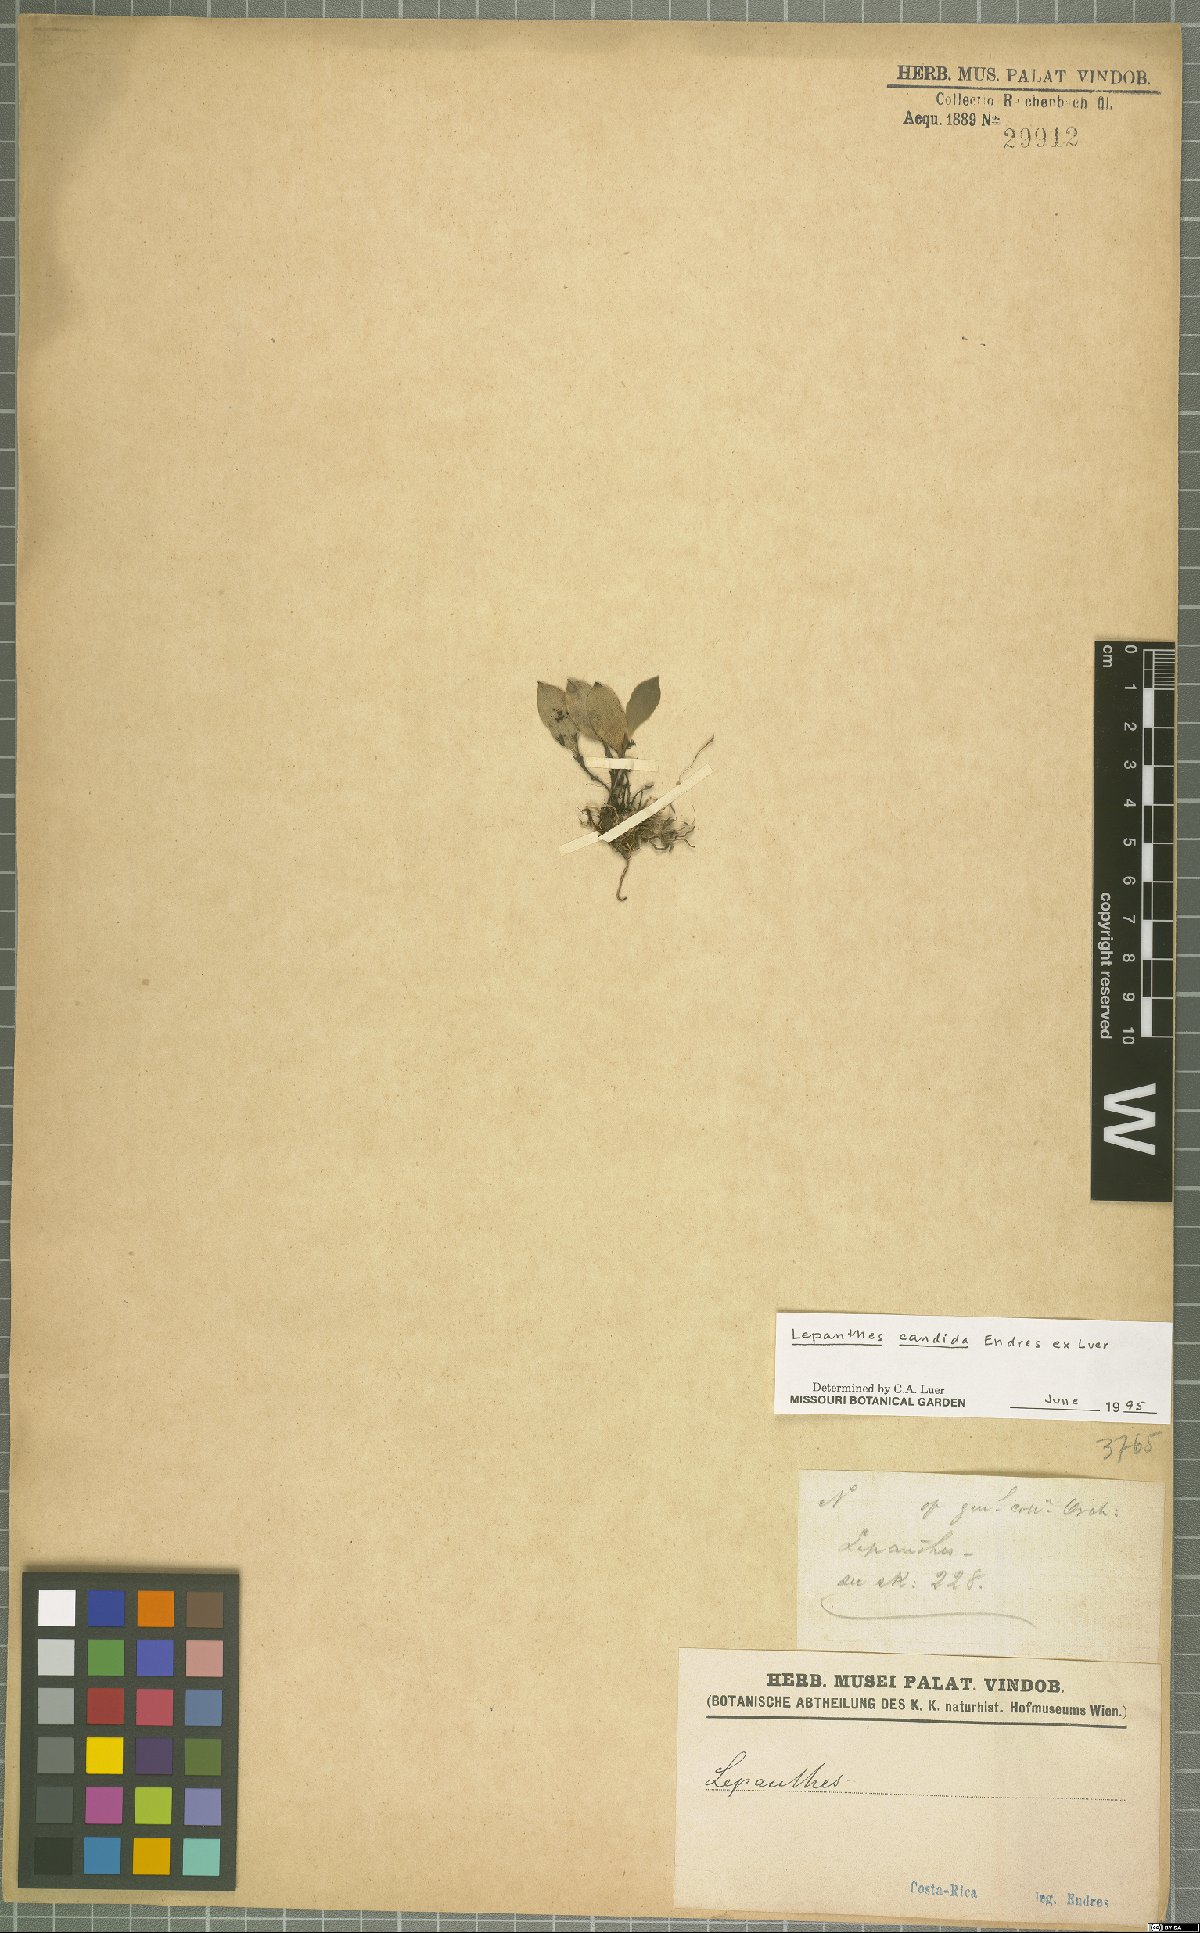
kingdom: Plantae
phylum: Tracheophyta
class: Liliopsida
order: Asparagales
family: Orchidaceae
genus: Lepanthes
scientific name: Lepanthes candida
